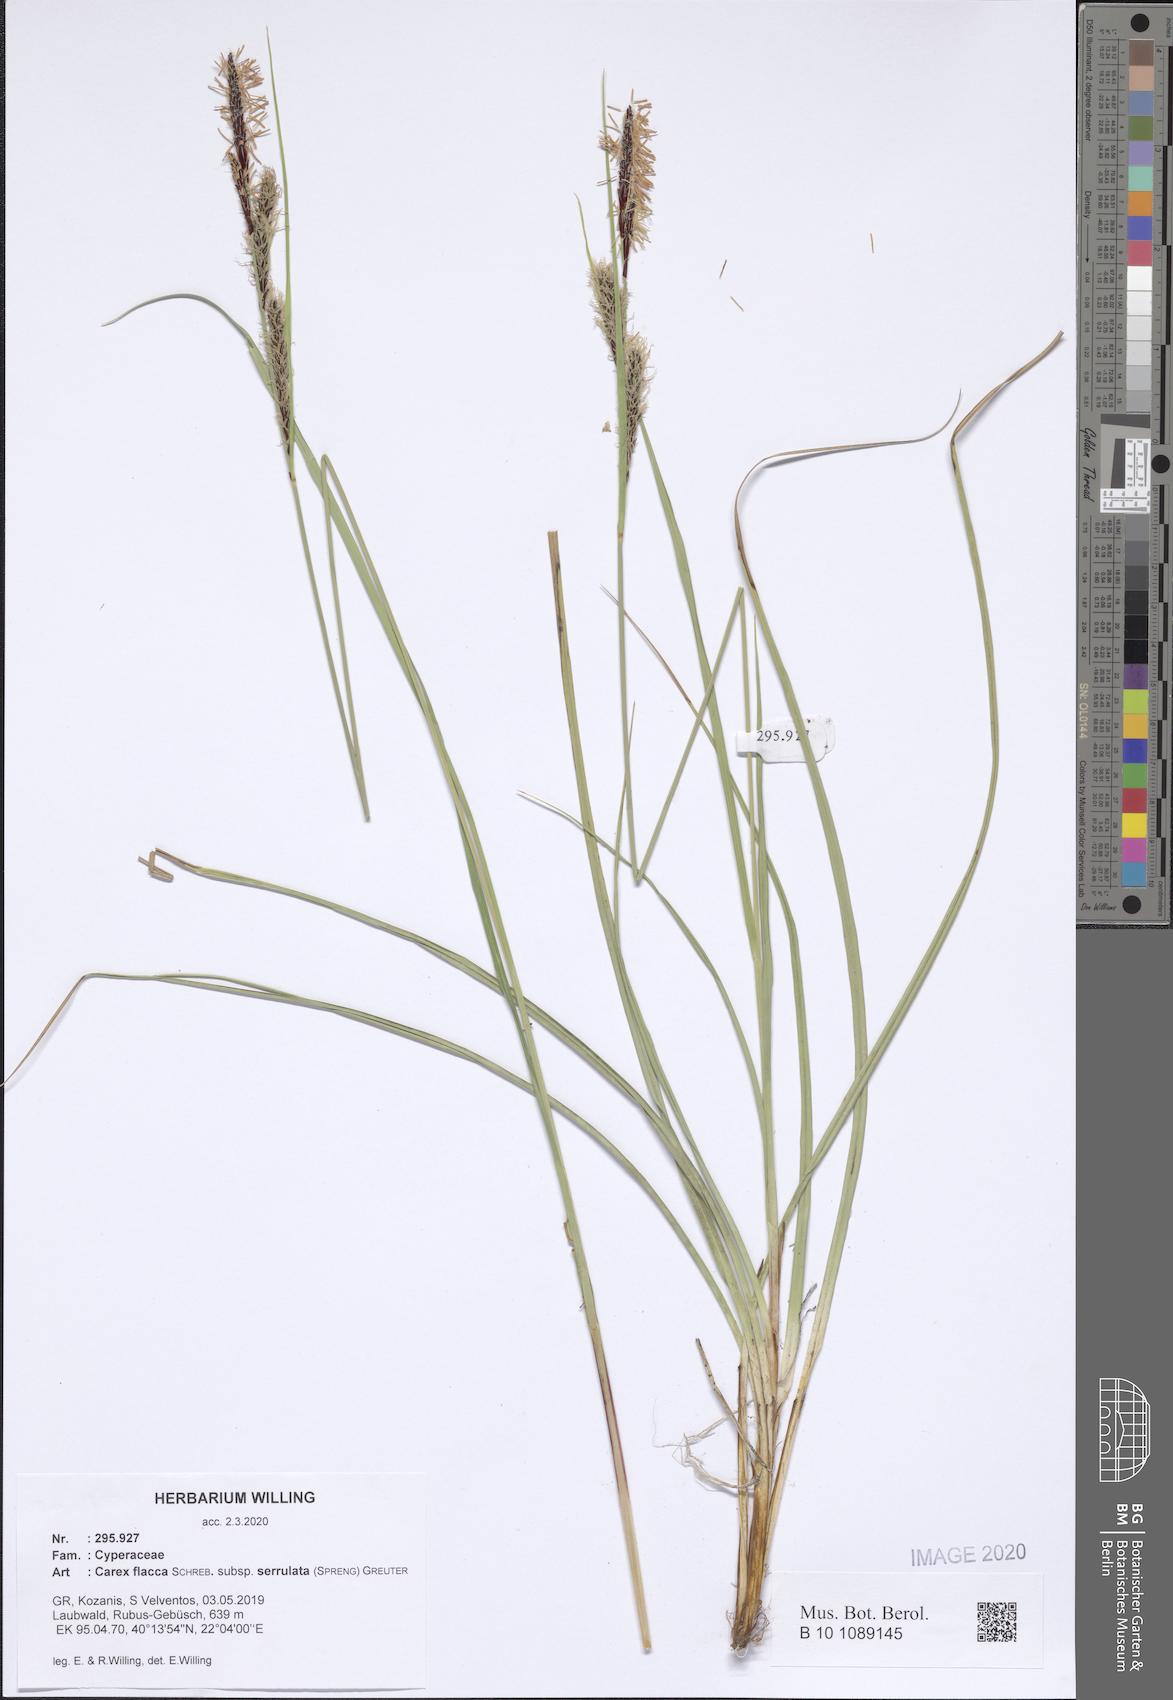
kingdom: Plantae
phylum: Tracheophyta
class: Liliopsida
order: Poales
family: Cyperaceae
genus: Carex
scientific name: Carex flacca
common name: Glaucous sedge
